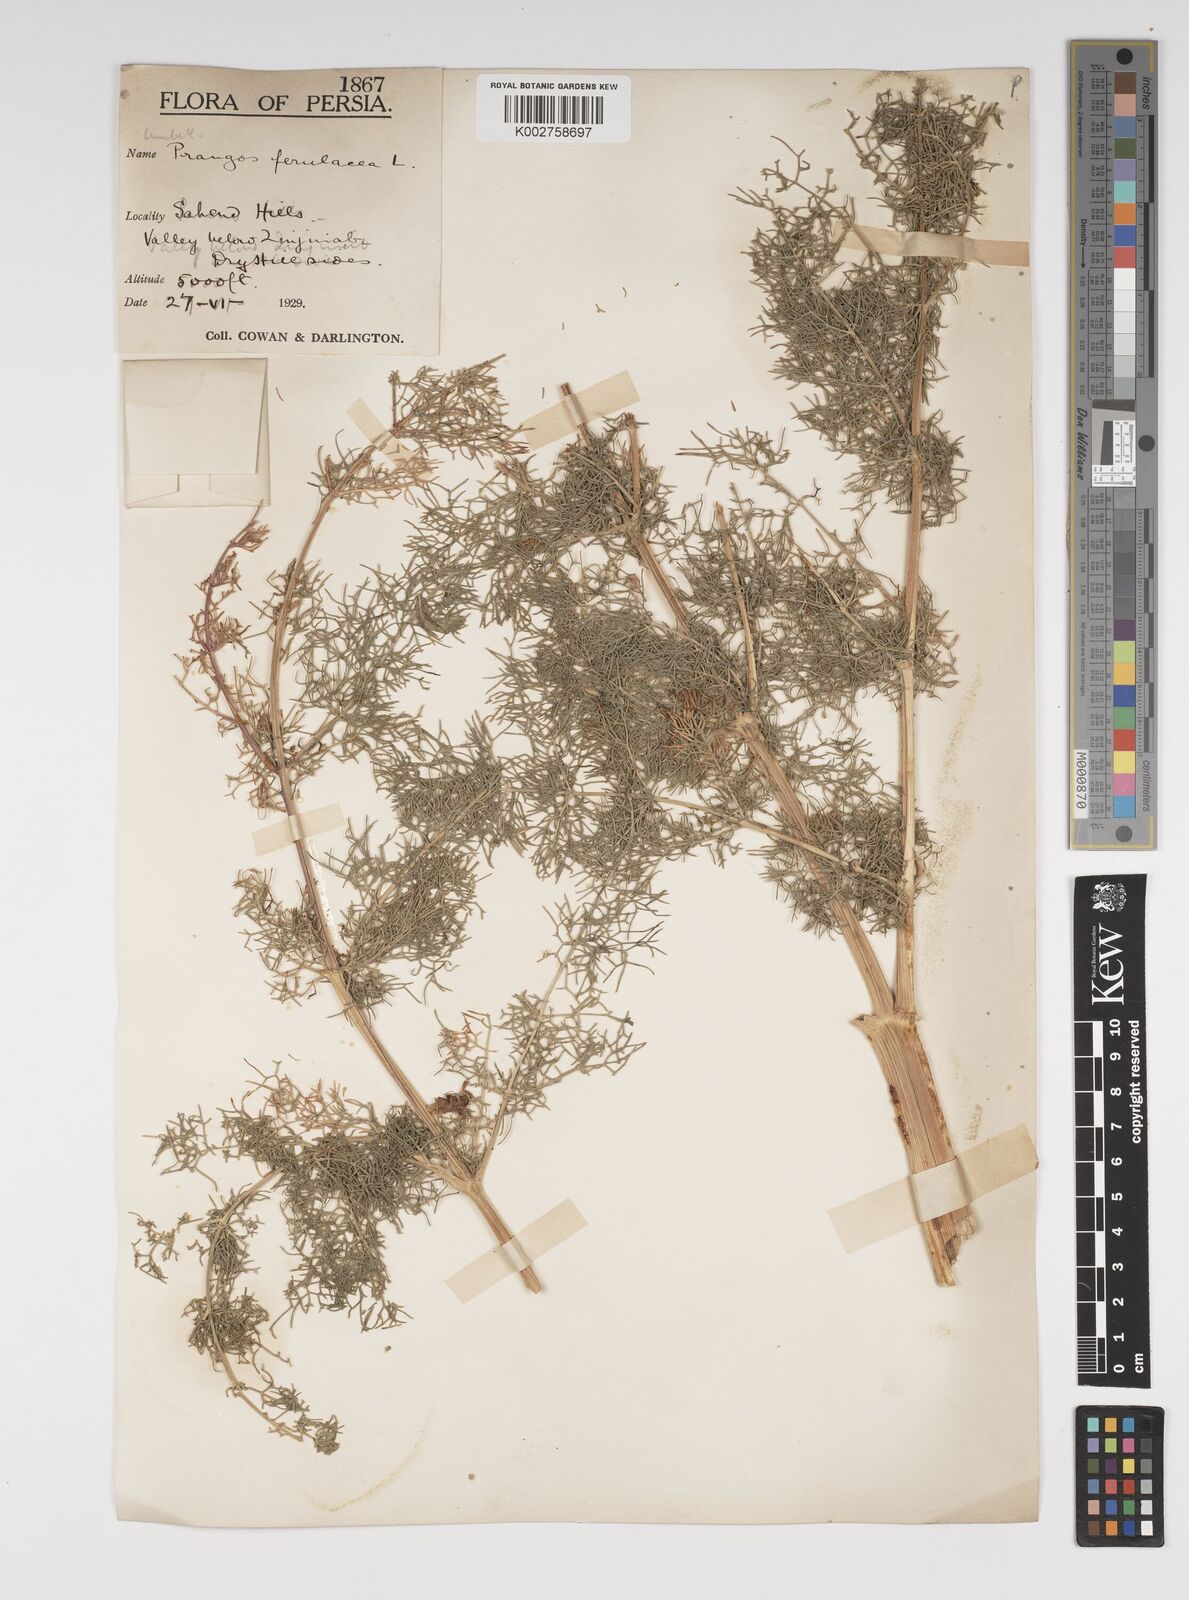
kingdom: Plantae
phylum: Tracheophyta
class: Magnoliopsida
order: Apiales
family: Apiaceae
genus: Prangos
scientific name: Prangos ferulacea
